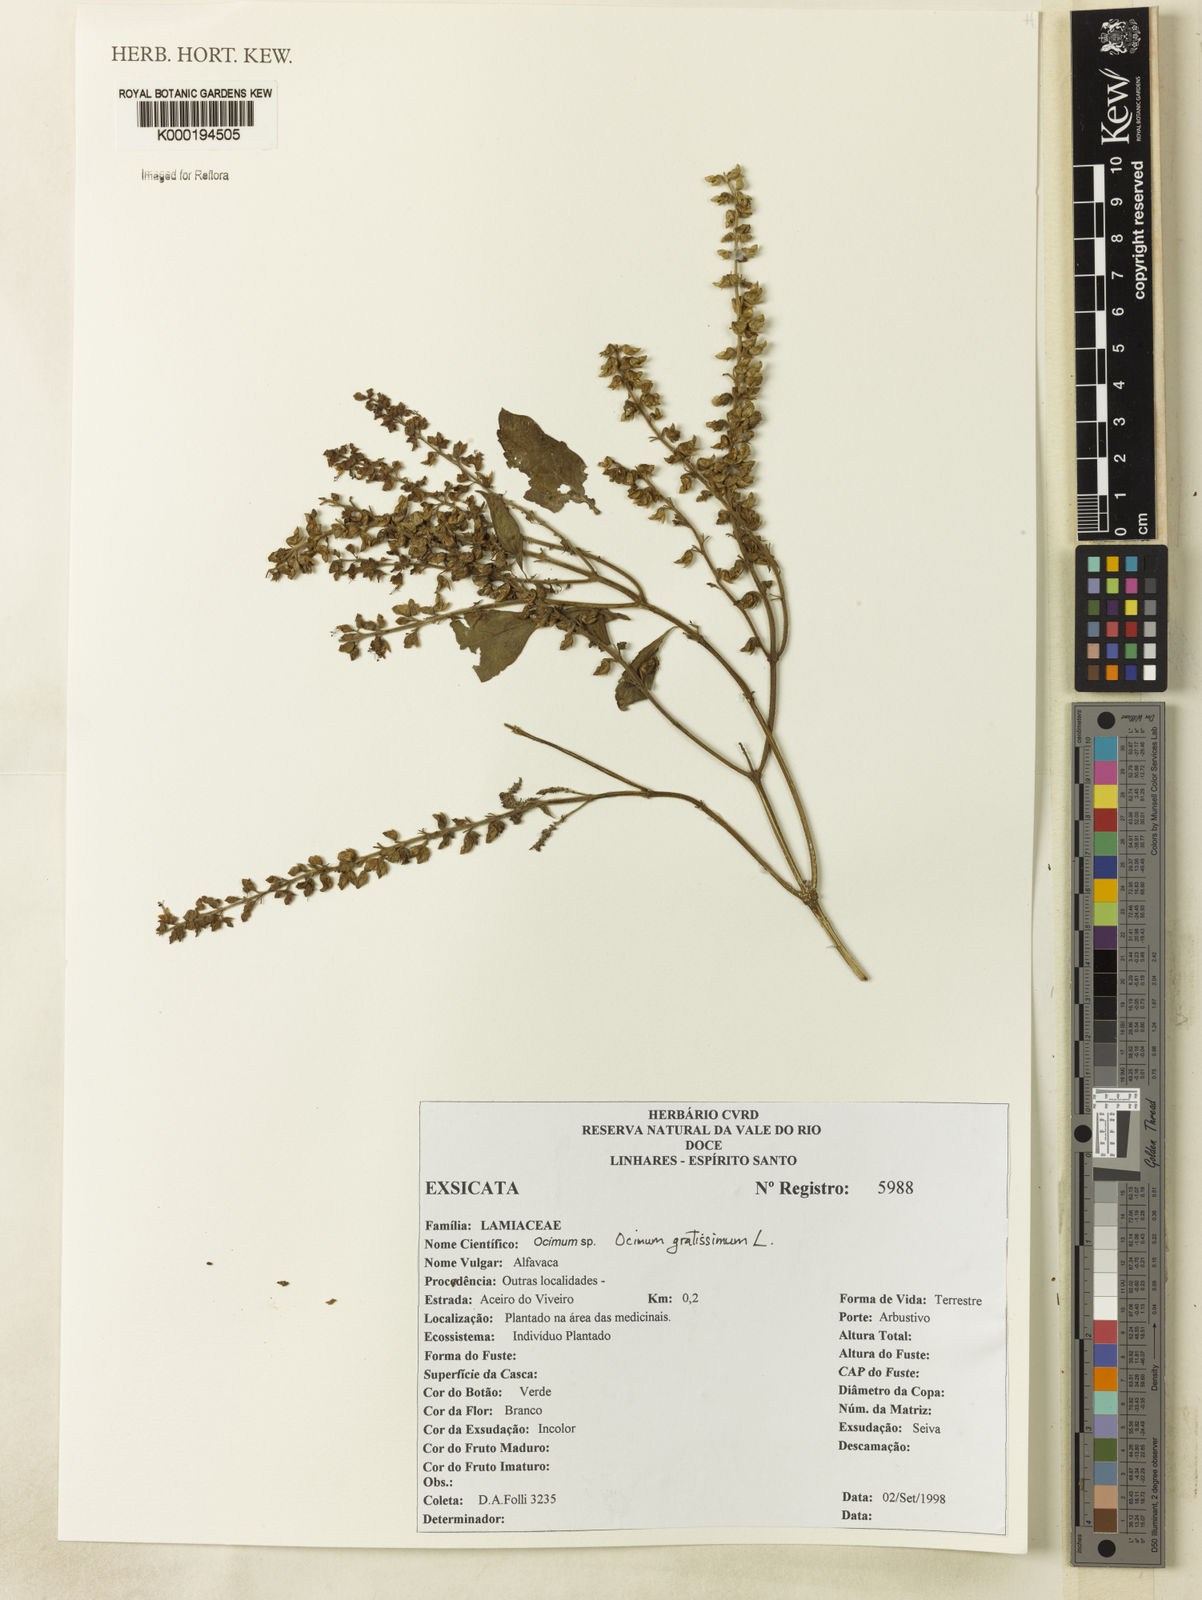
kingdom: Plantae
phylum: Tracheophyta
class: Magnoliopsida
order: Lamiales
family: Lamiaceae
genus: Ocimum
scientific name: Ocimum gratissimum
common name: African basil
